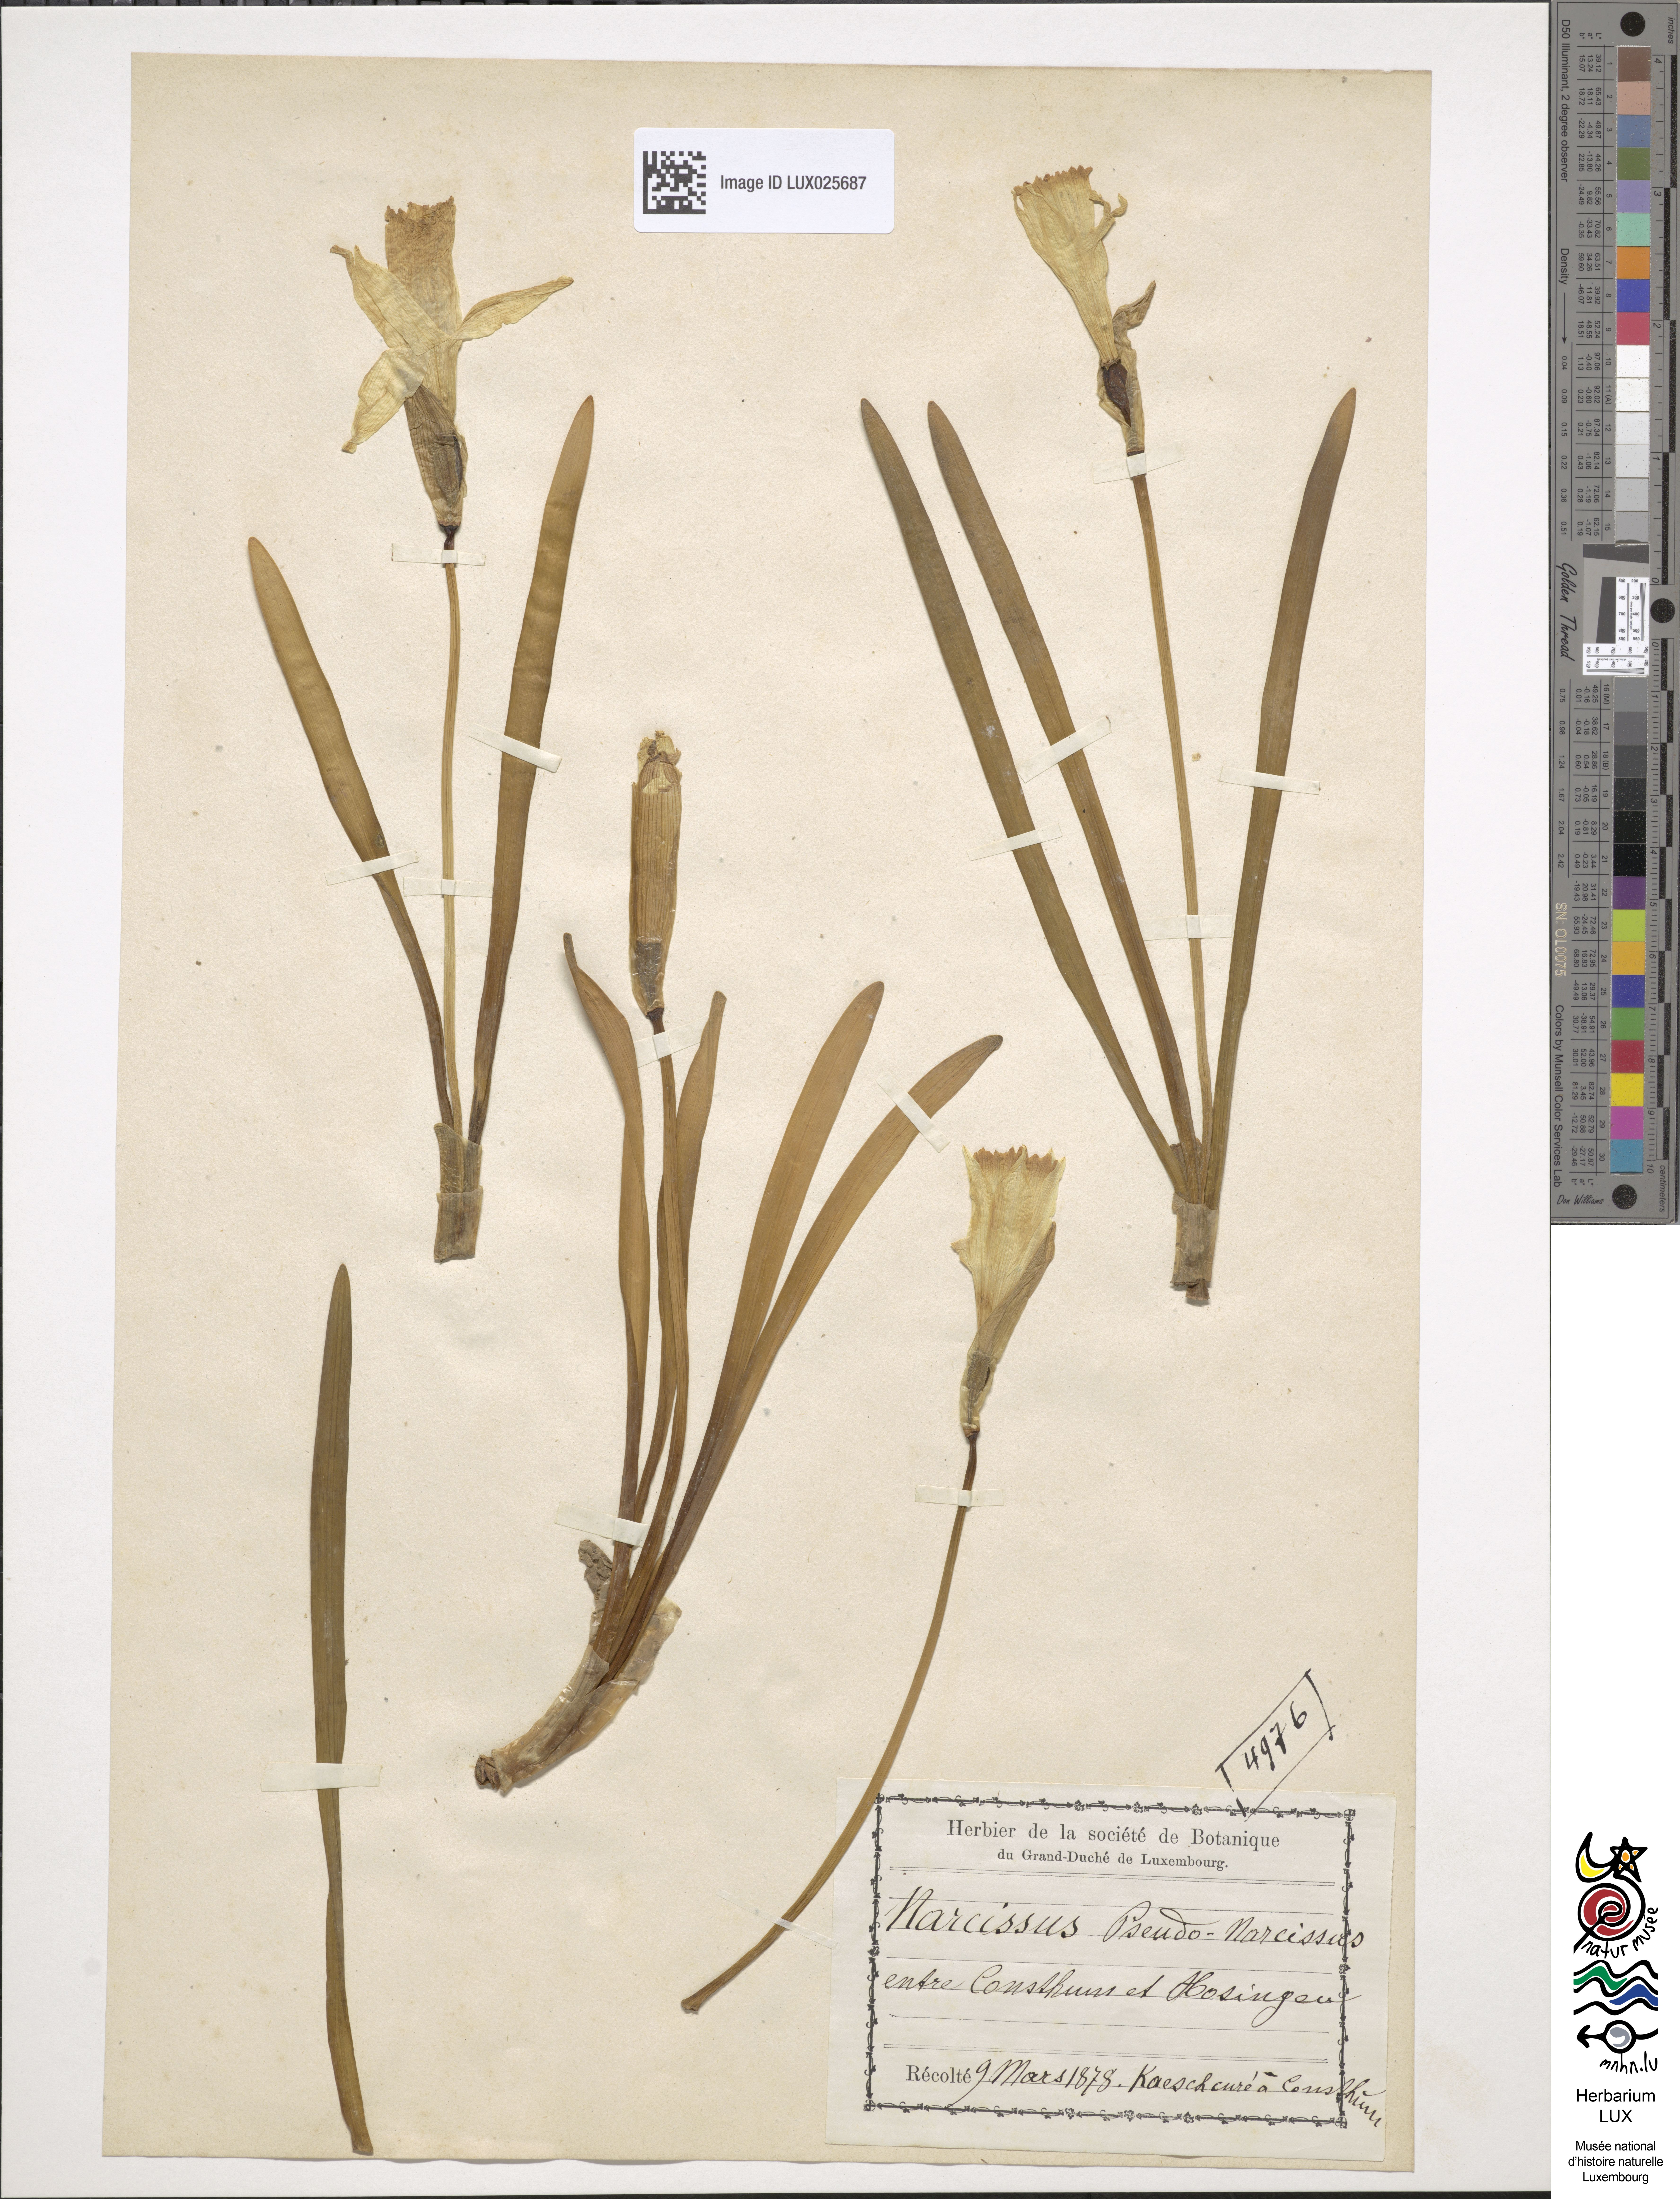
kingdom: Plantae
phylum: Tracheophyta
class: Liliopsida
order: Asparagales
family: Amaryllidaceae
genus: Narcissus
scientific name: Narcissus pseudonarcissus
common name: Daffodil
